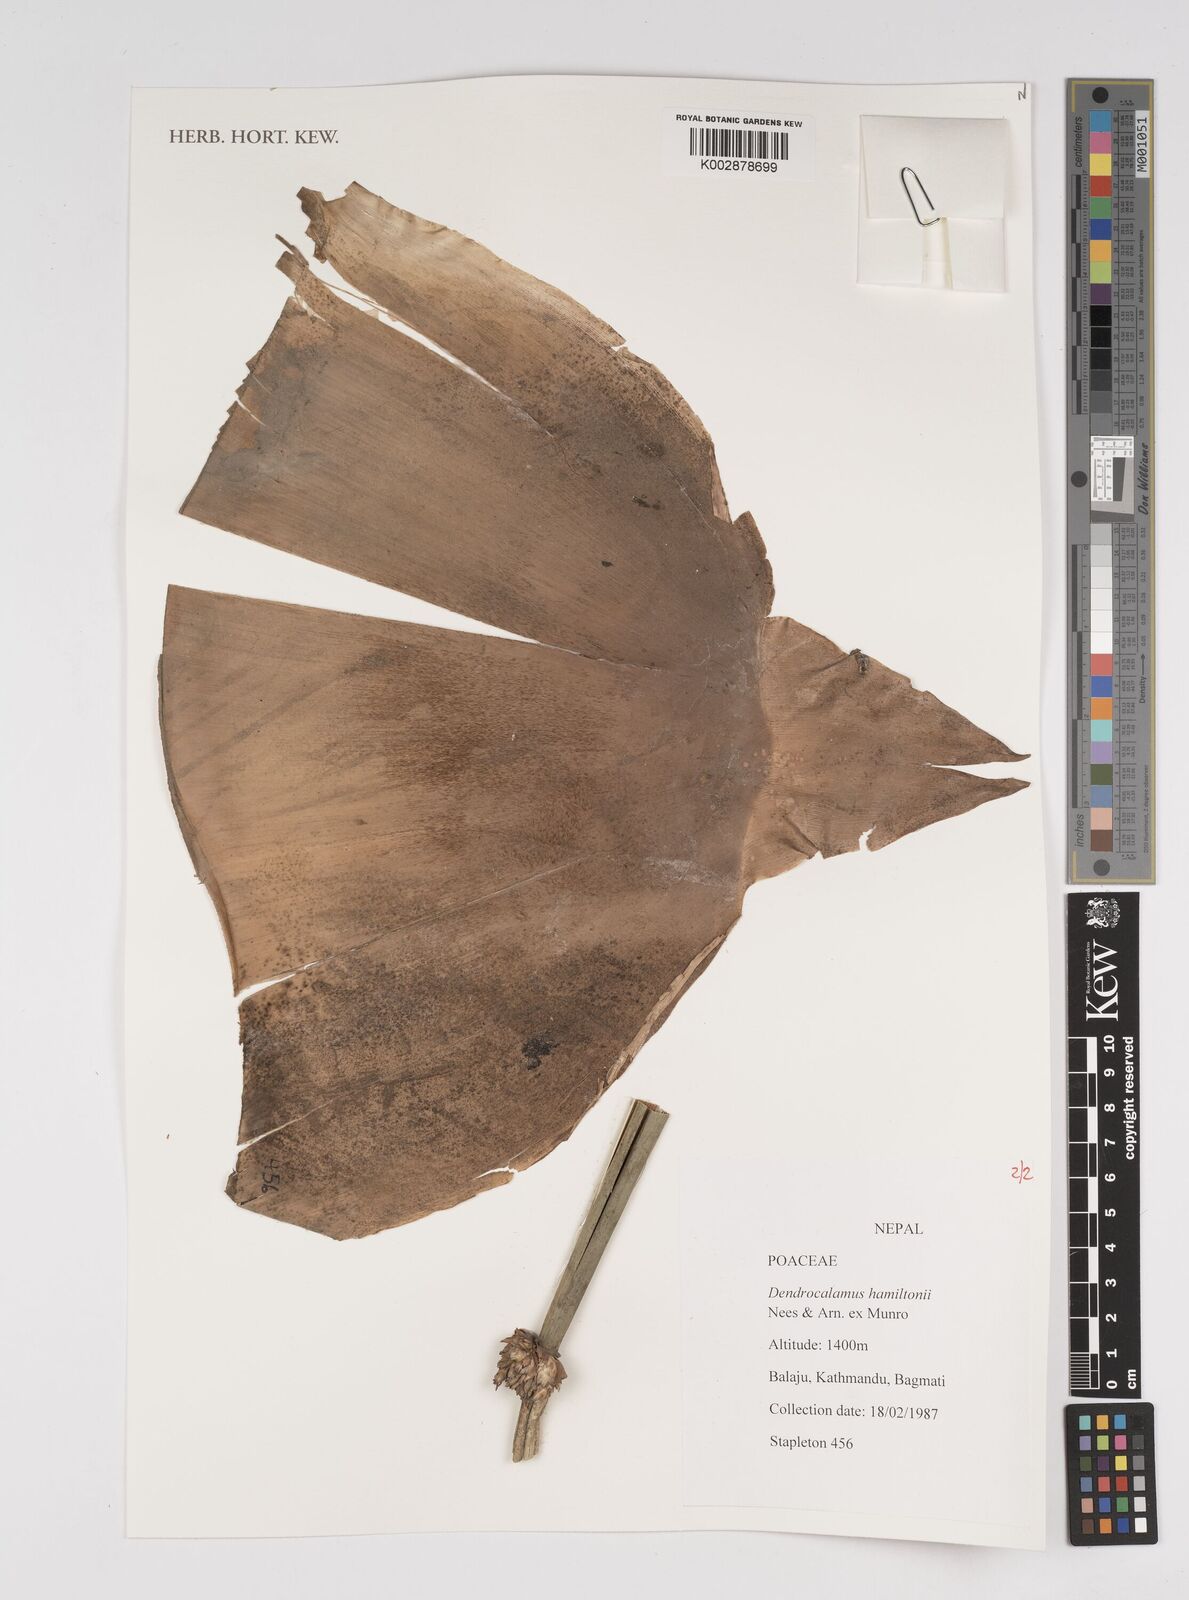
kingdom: Plantae
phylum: Tracheophyta
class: Liliopsida
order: Poales
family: Poaceae
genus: Dendrocalamus
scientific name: Dendrocalamus hamiltonii
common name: Tama bamboo
